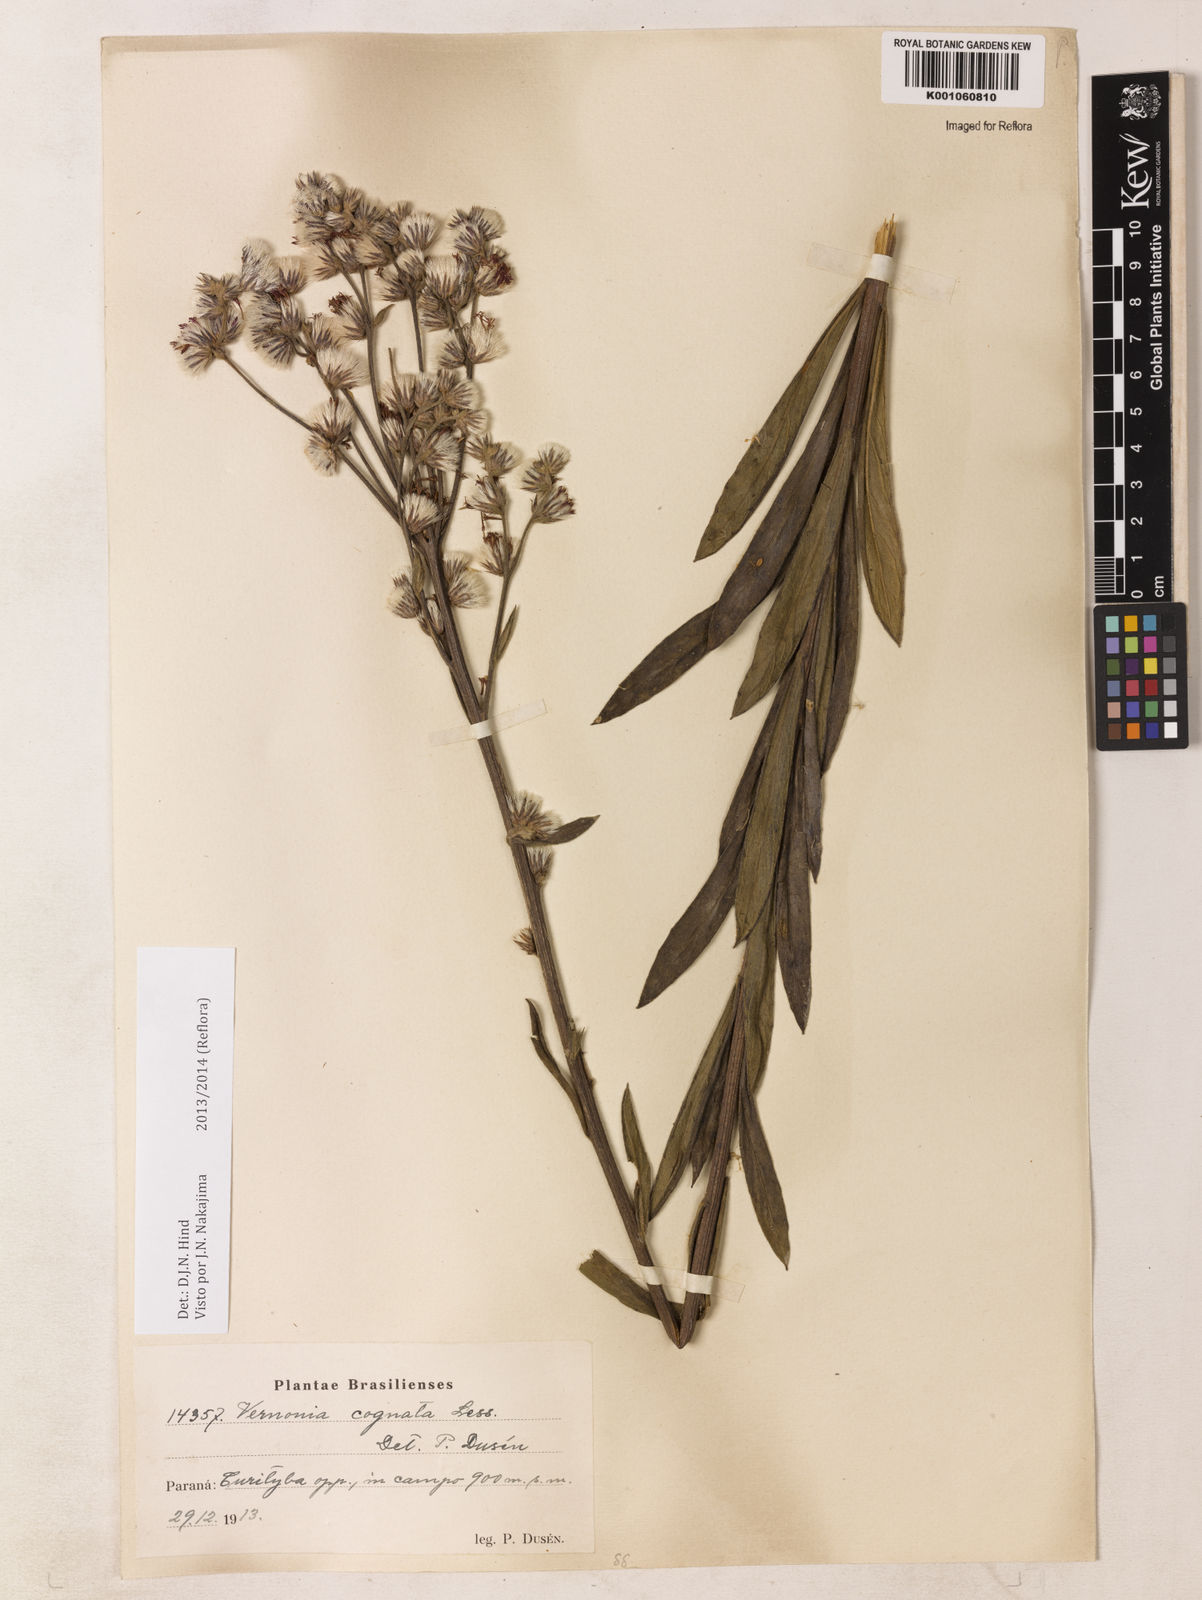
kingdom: Plantae
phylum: Tracheophyta
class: Magnoliopsida
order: Asterales
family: Asteraceae
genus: Chrysolaena
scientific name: Chrysolaena cognata
